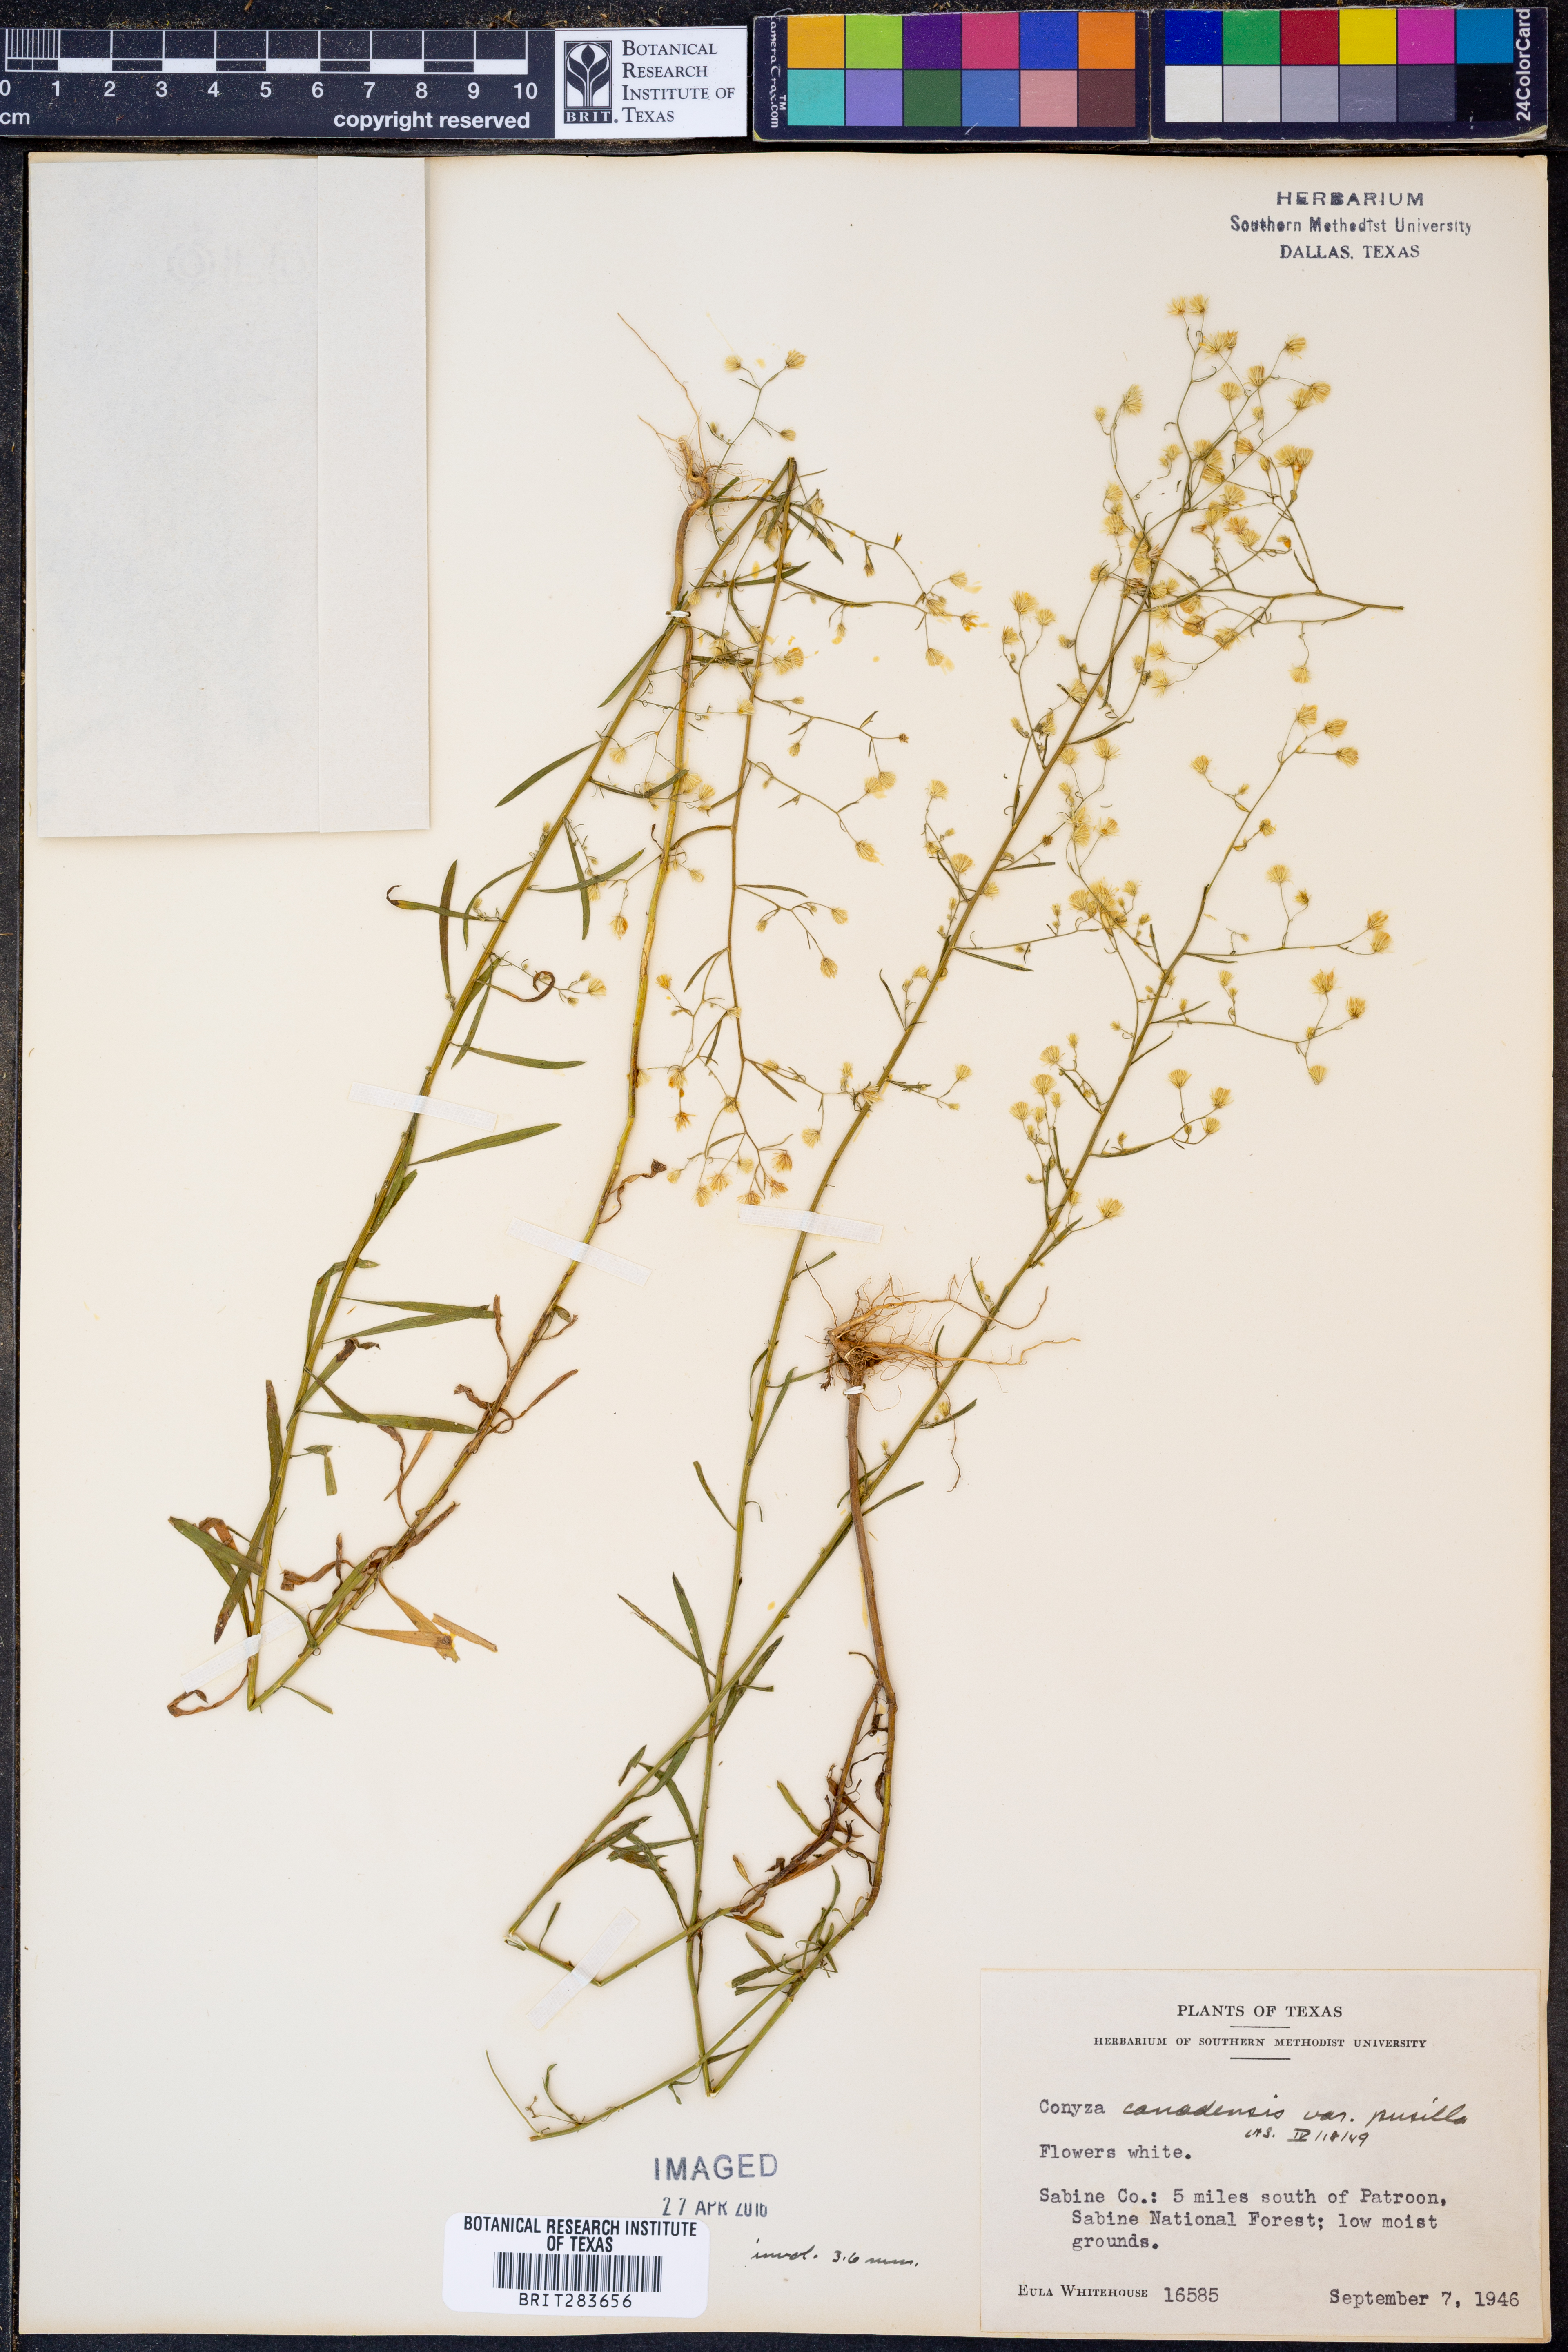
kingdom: Plantae
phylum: Tracheophyta
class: Magnoliopsida
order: Asterales
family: Asteraceae
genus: Erigeron
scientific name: Erigeron canadensis
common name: Canadian fleabane
